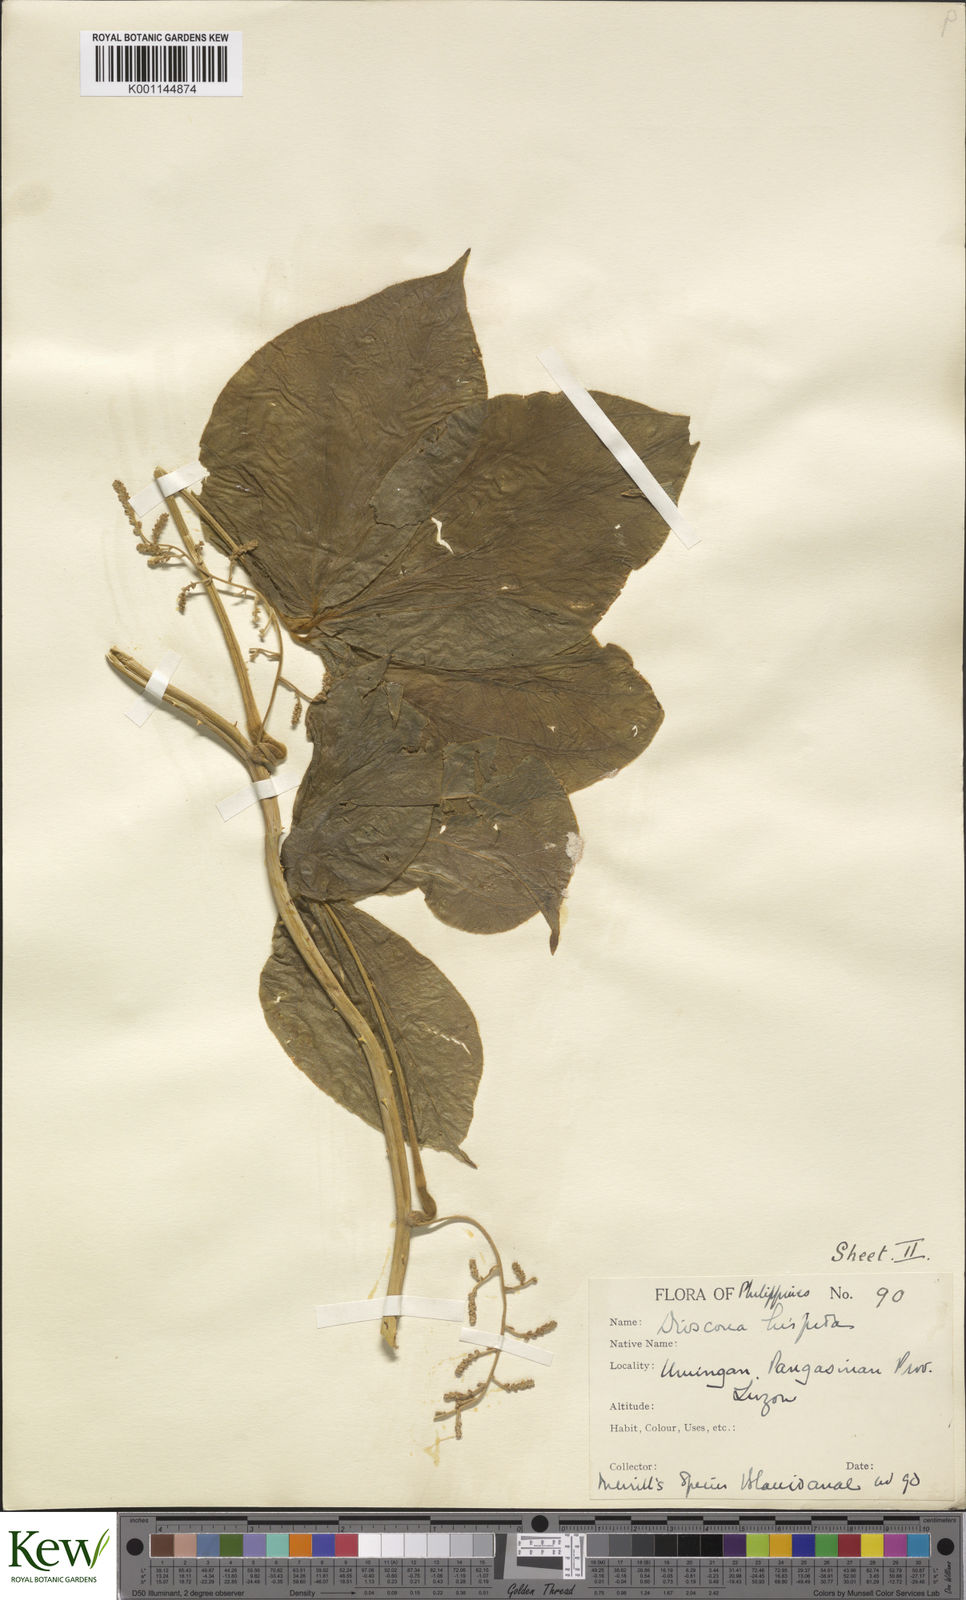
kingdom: Plantae
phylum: Tracheophyta
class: Liliopsida
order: Dioscoreales
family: Dioscoreaceae
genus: Dioscorea
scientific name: Dioscorea hispida
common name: Asiatic bitter yam
